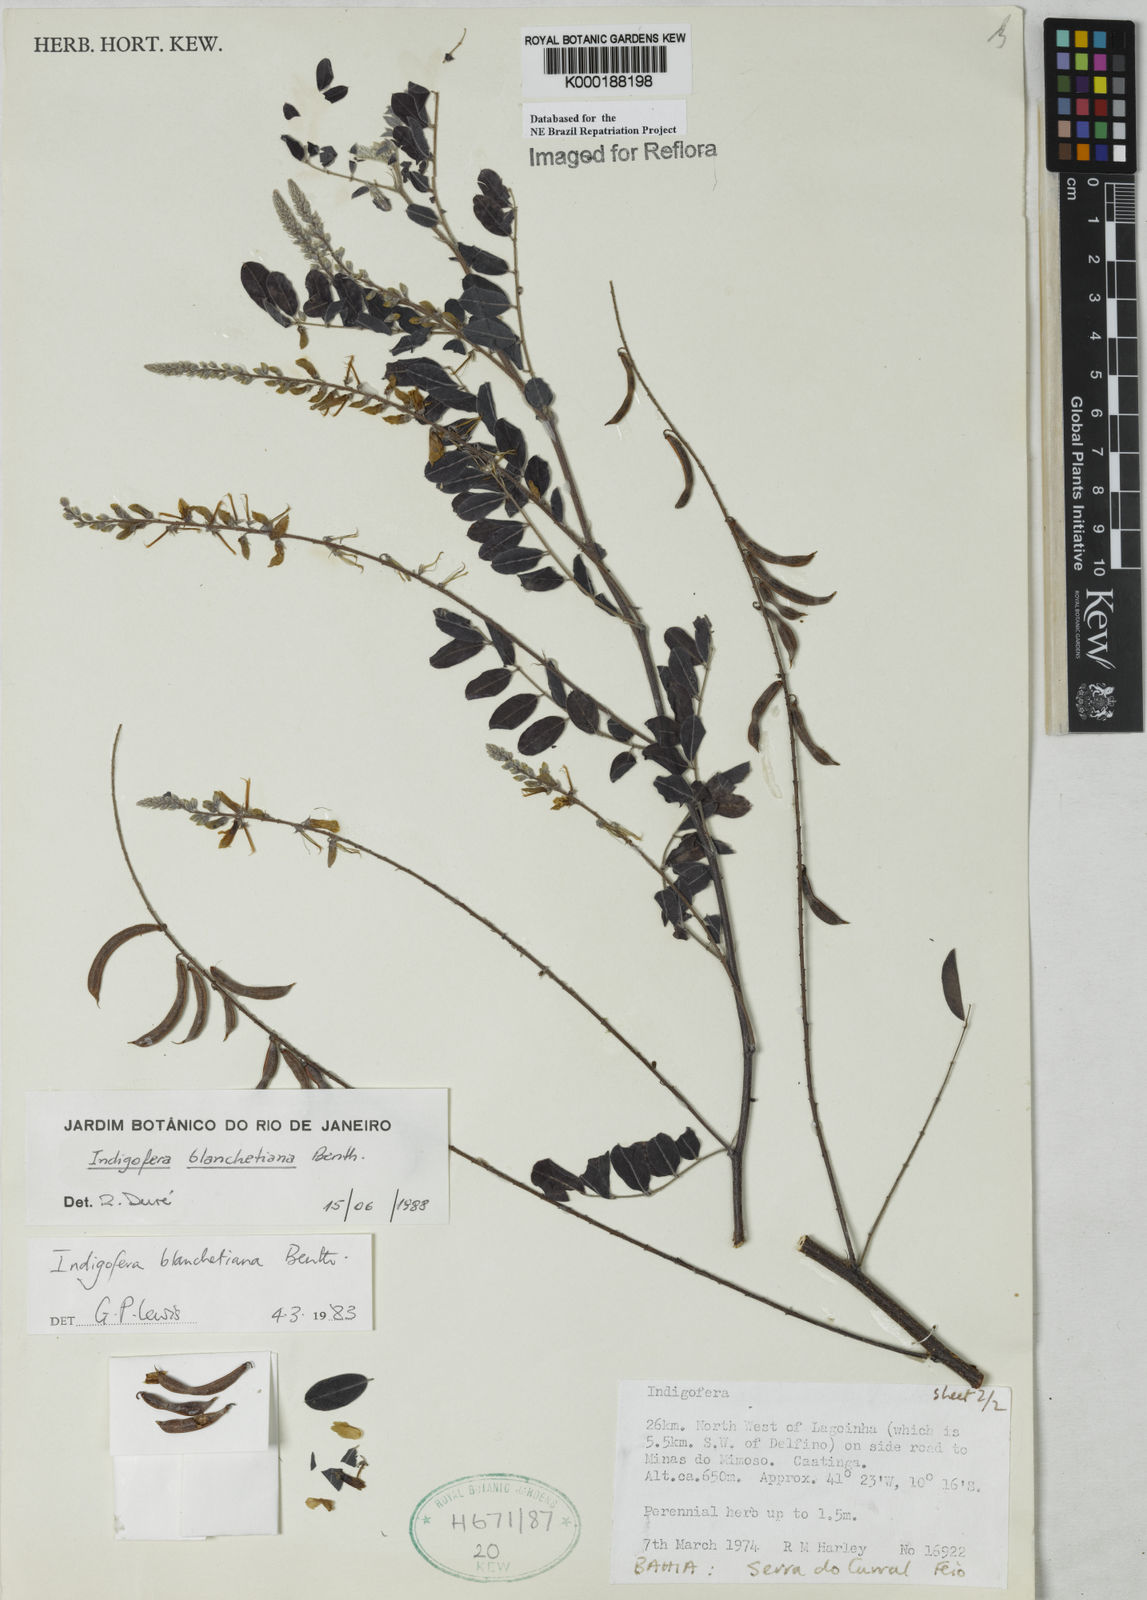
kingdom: Plantae
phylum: Tracheophyta
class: Magnoliopsida
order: Fabales
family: Fabaceae
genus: Indigofera
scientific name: Indigofera blanchetiana
